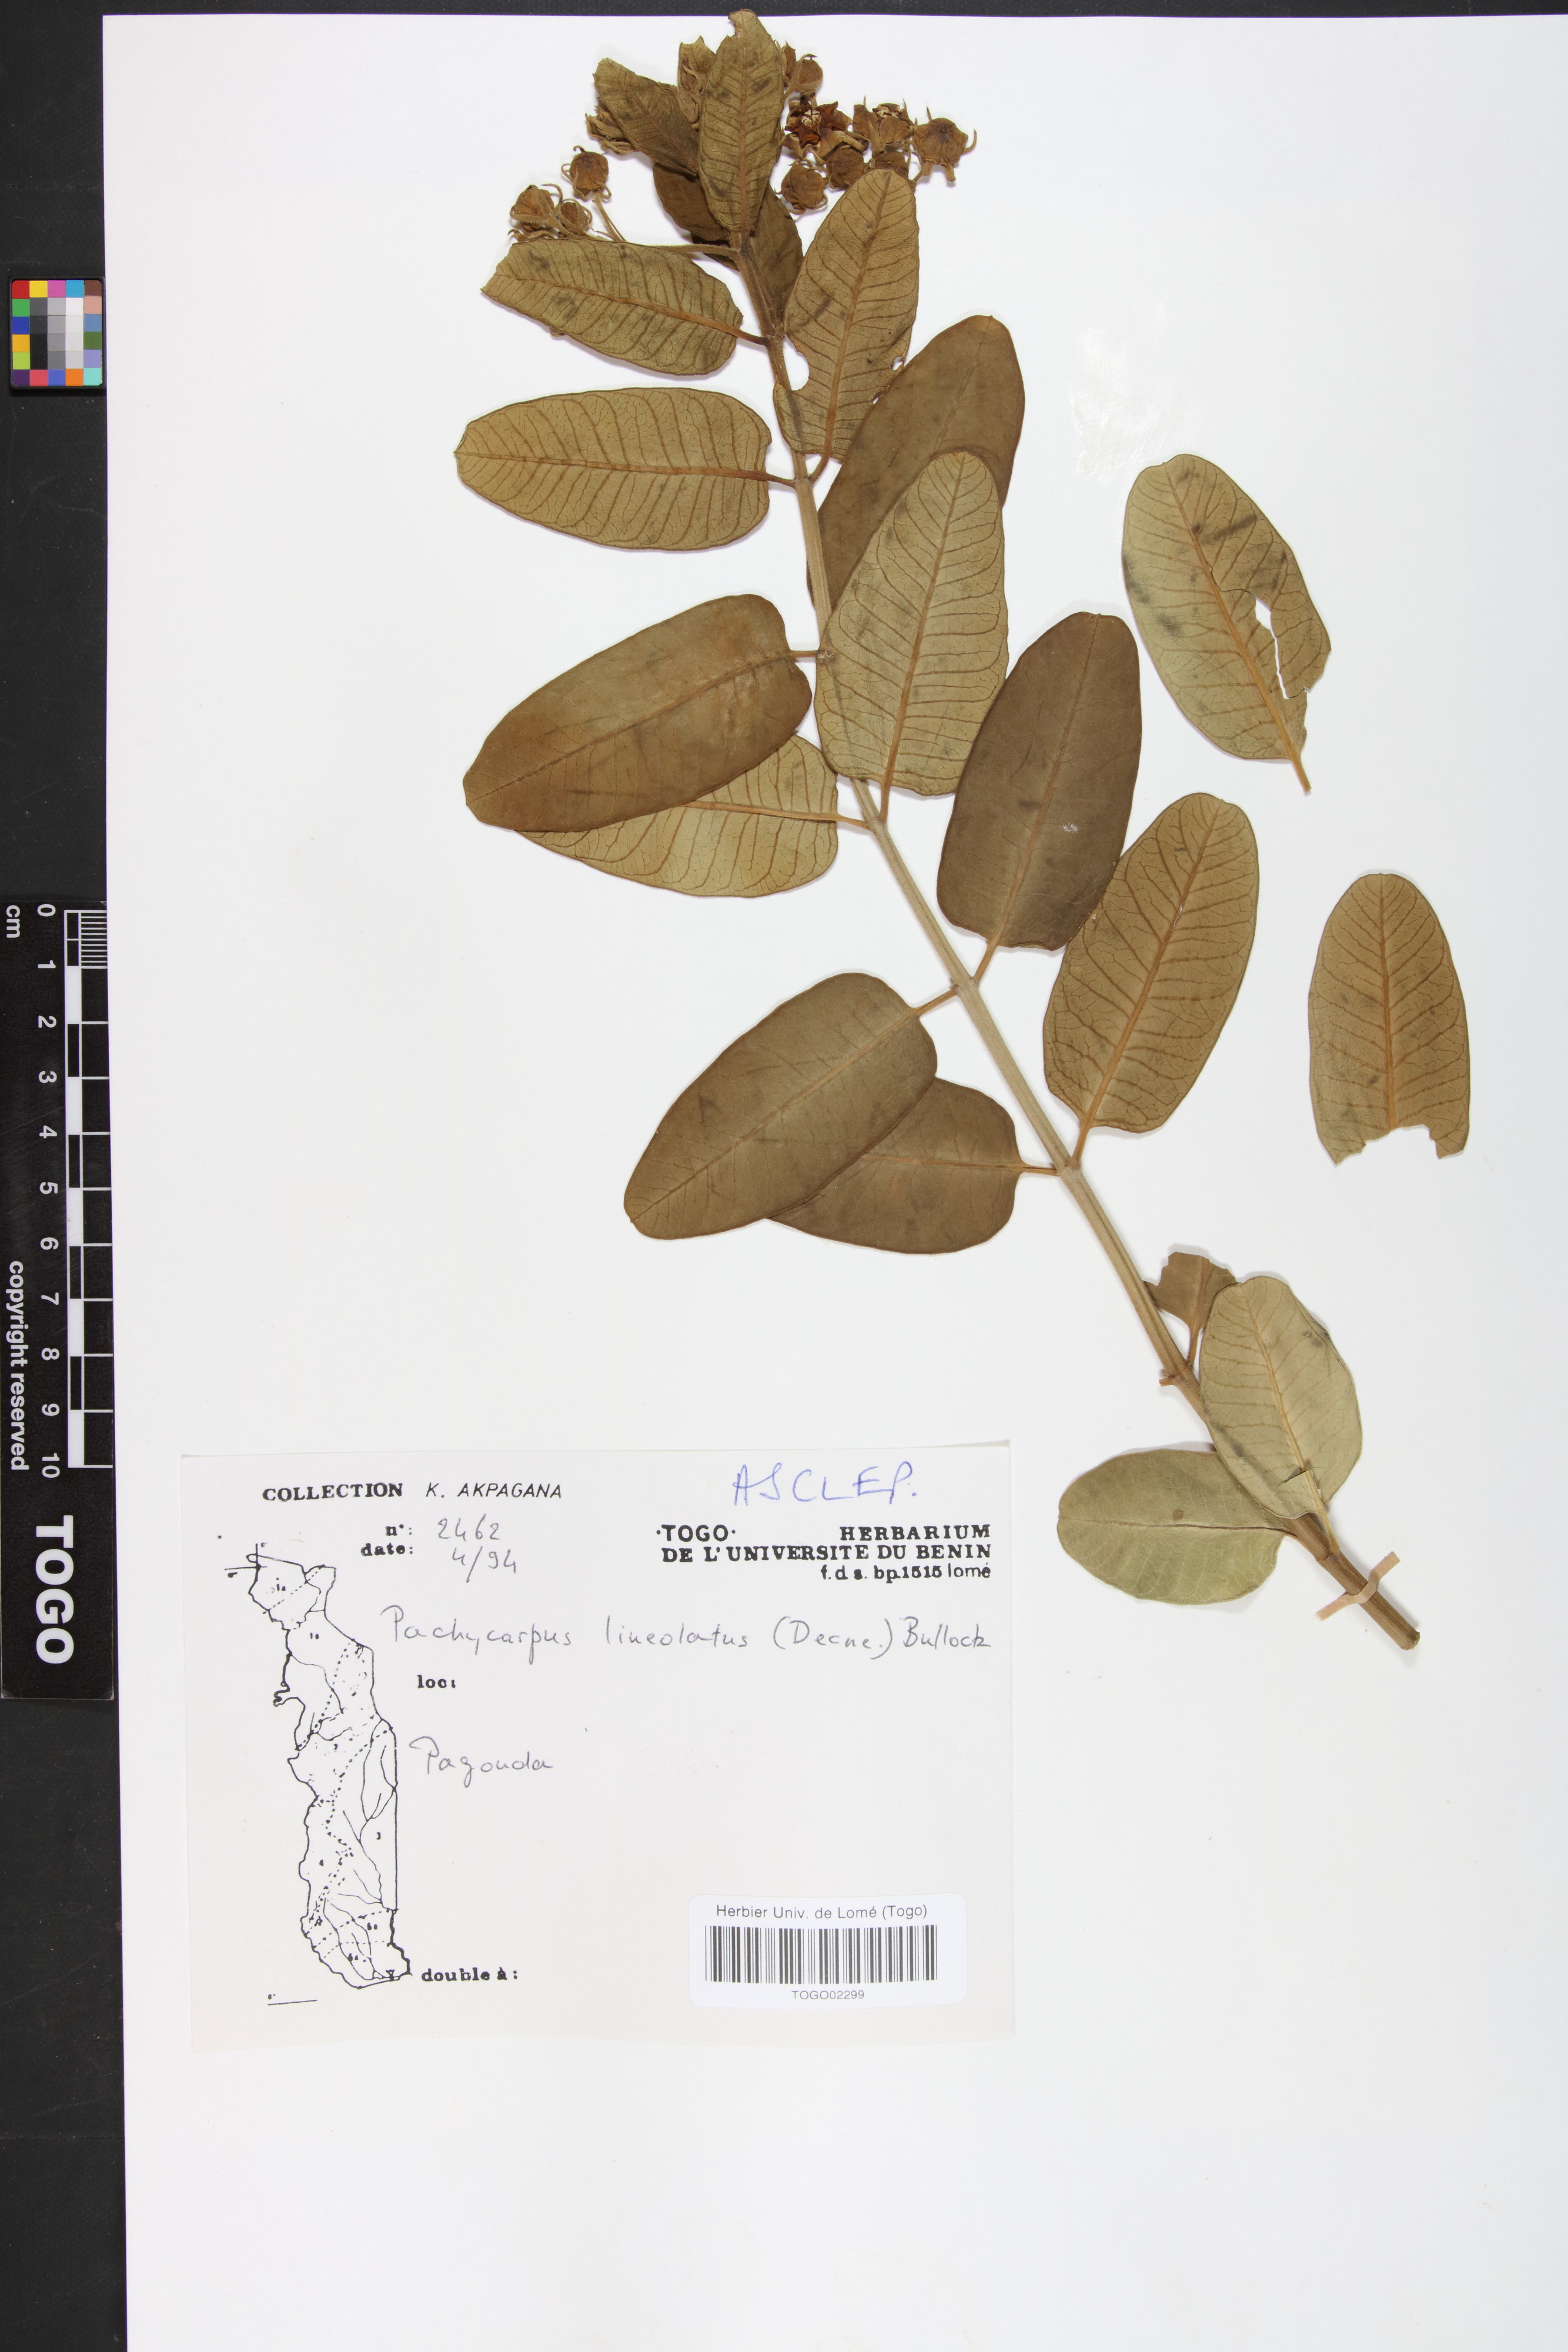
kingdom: Plantae
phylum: Tracheophyta
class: Magnoliopsida
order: Gentianales
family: Apocynaceae
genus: Pachycarpus
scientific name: Pachycarpus lineolatus
